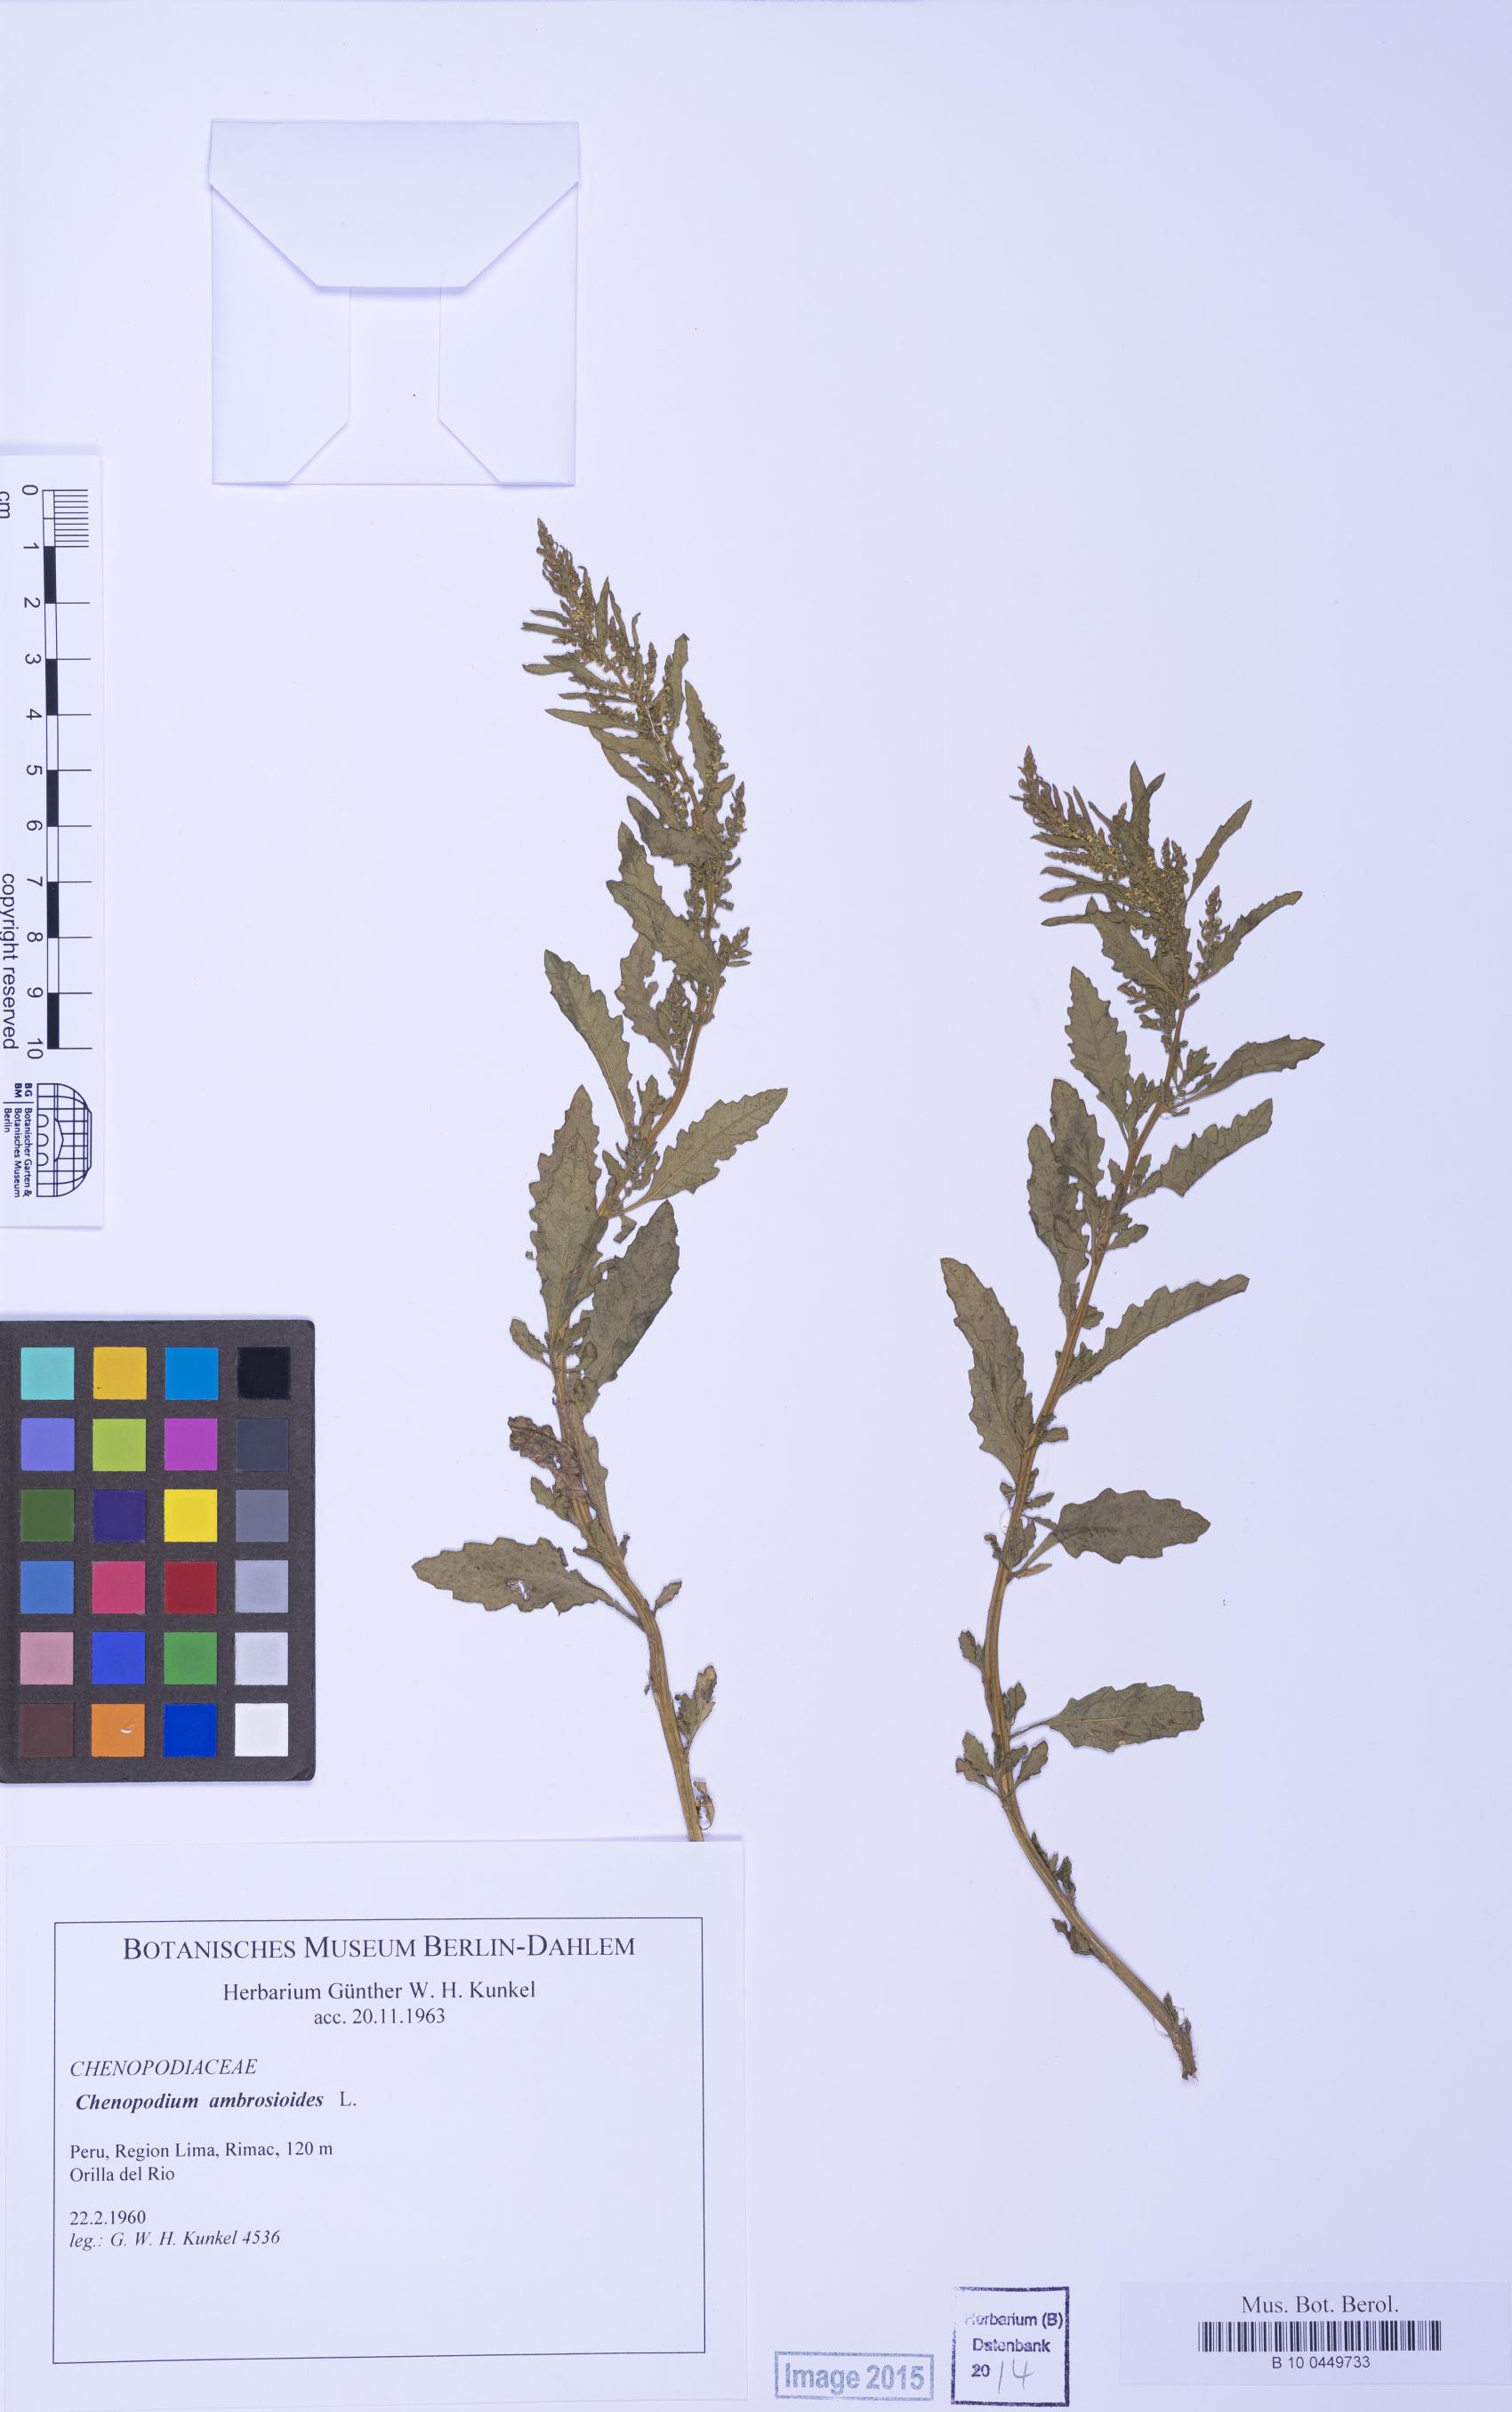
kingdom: Plantae
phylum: Tracheophyta
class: Magnoliopsida
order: Caryophyllales
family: Amaranthaceae
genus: Dysphania
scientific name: Dysphania ambrosioides
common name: Wormseed
